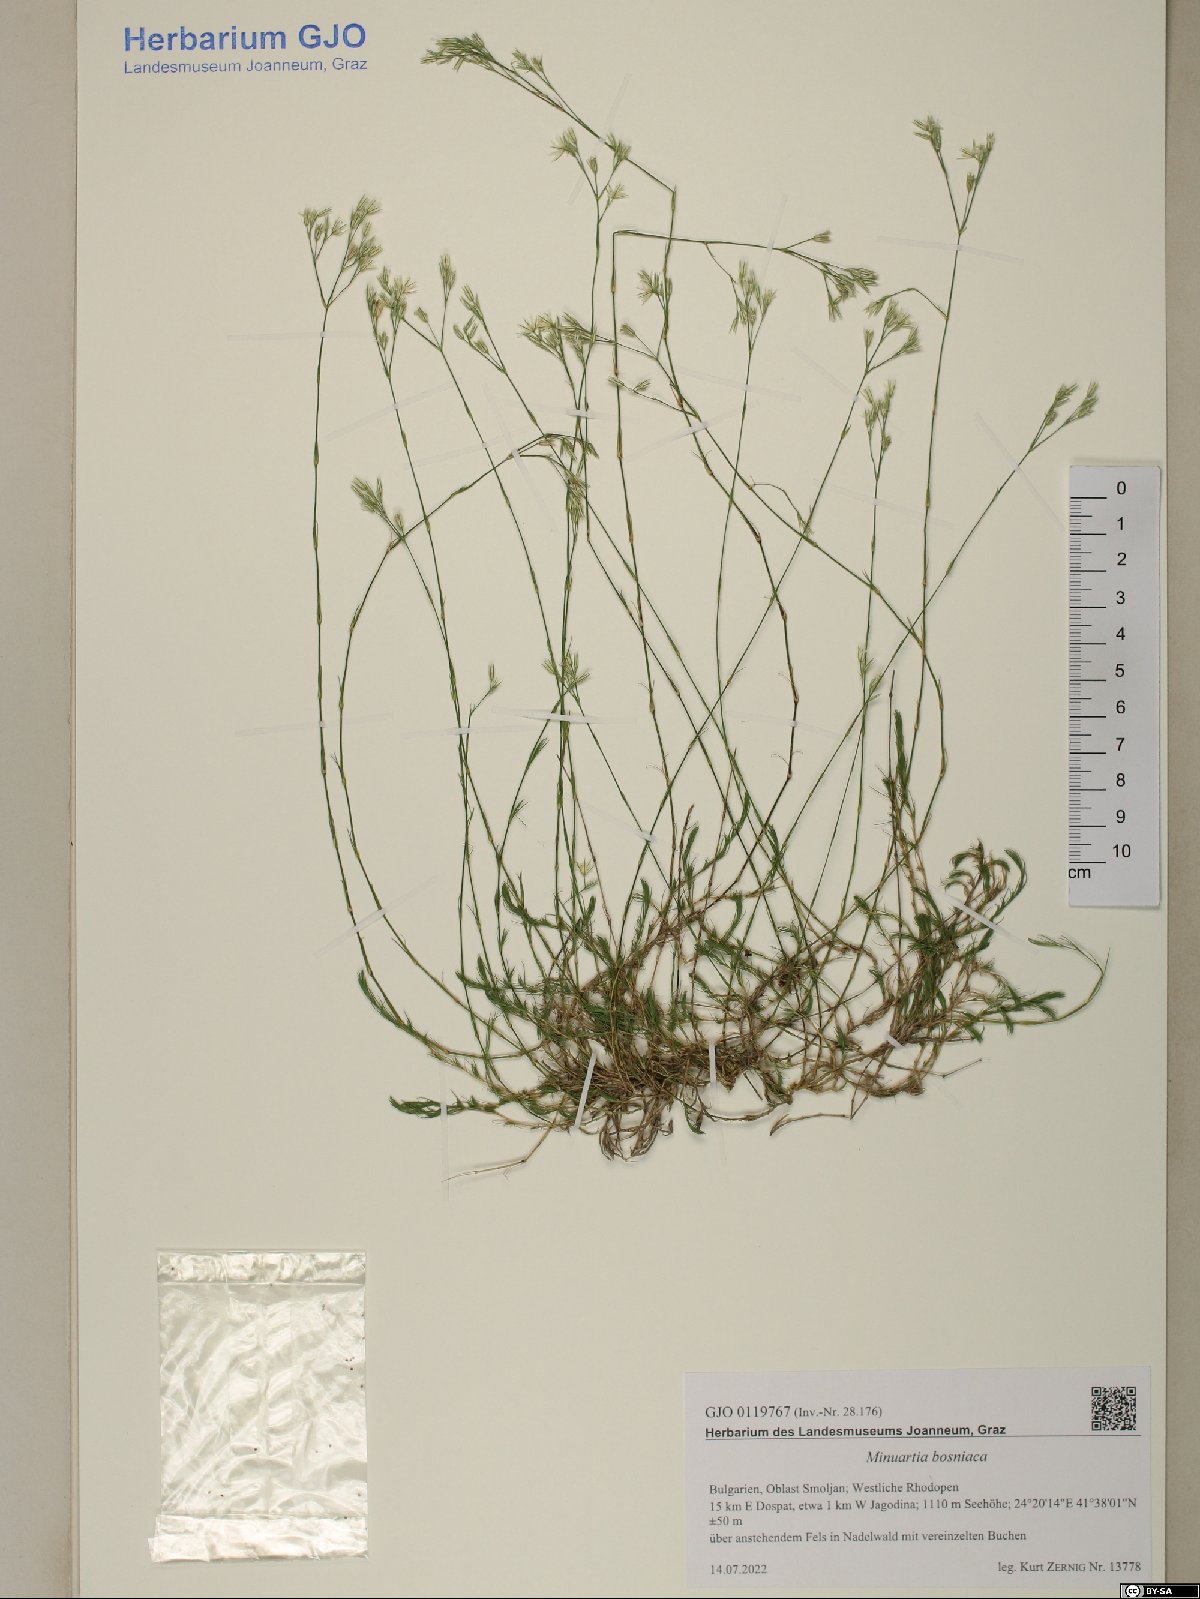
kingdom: Plantae
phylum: Tracheophyta
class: Magnoliopsida
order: Caryophyllales
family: Caryophyllaceae
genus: Minuartia
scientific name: Minuartia bosniaca
